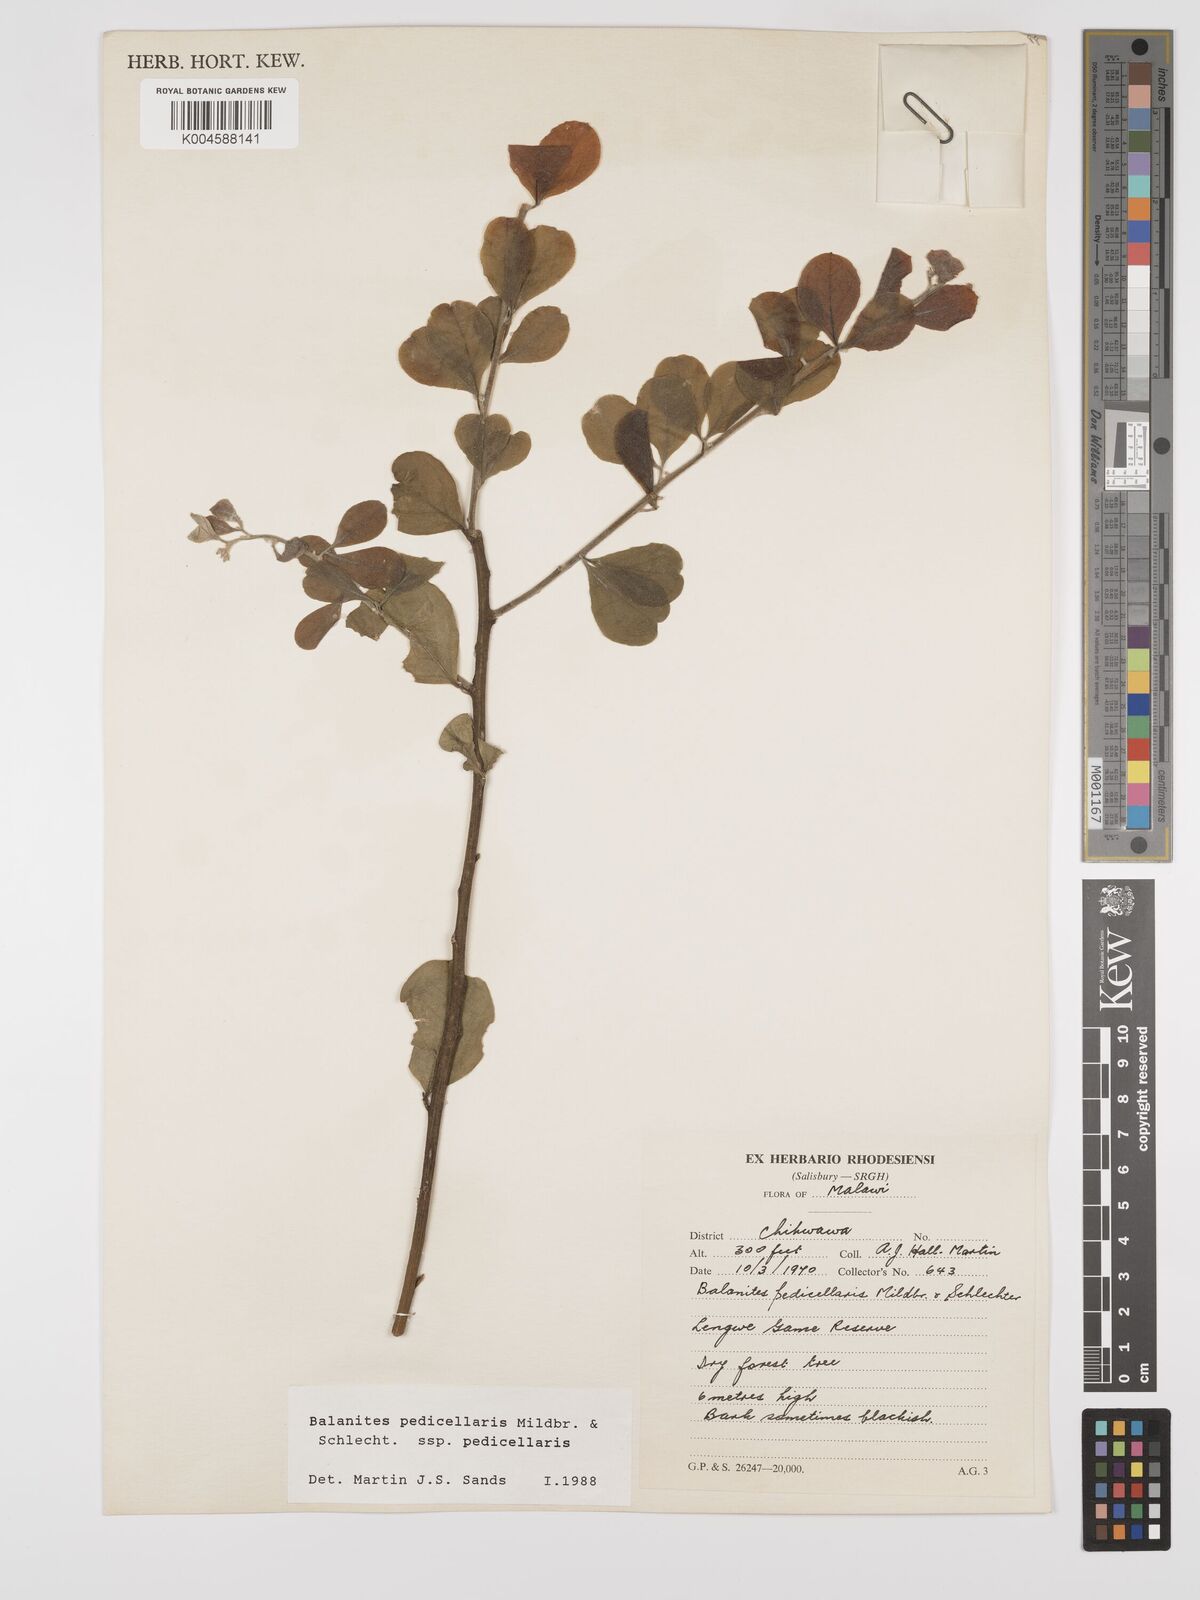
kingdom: Plantae
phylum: Tracheophyta
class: Magnoliopsida
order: Zygophyllales
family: Zygophyllaceae
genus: Balanites
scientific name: Balanites pedicellaris
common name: Small green-thorn
